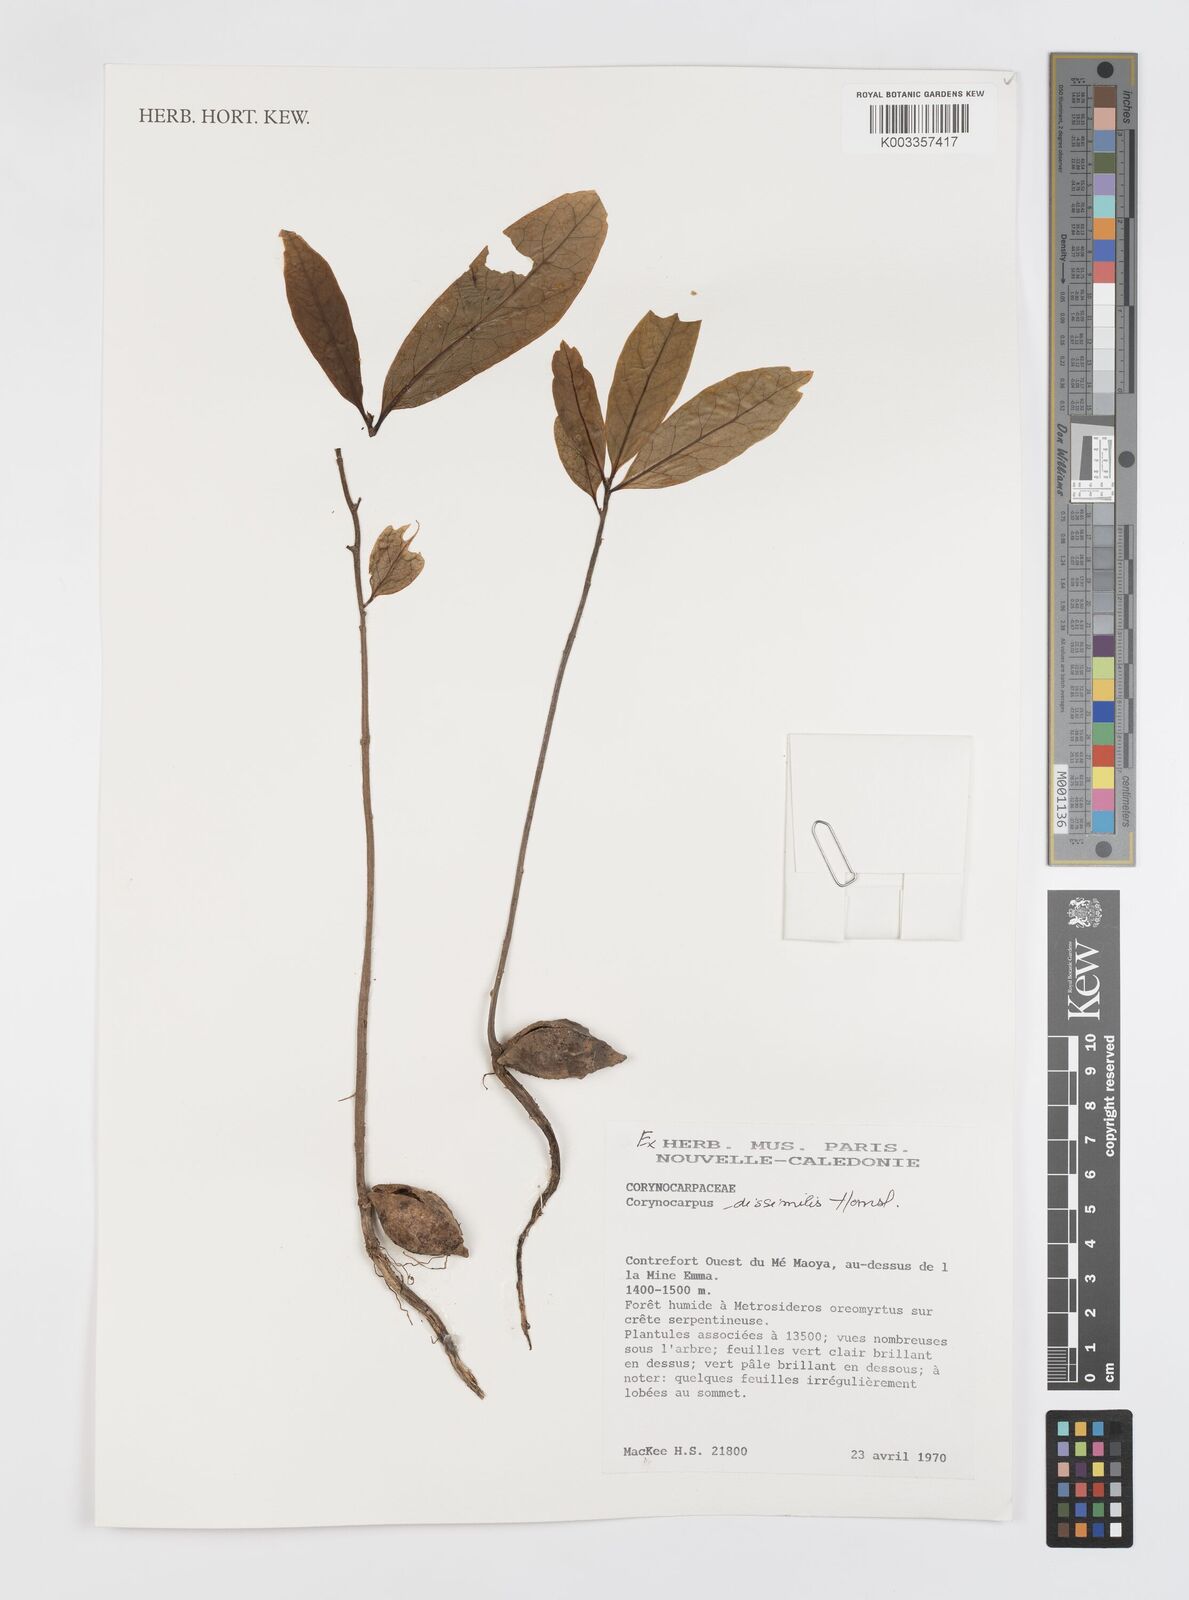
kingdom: Plantae
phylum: Tracheophyta
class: Magnoliopsida
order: Cucurbitales
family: Corynocarpaceae
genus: Corynocarpus
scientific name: Corynocarpus dissimilis
